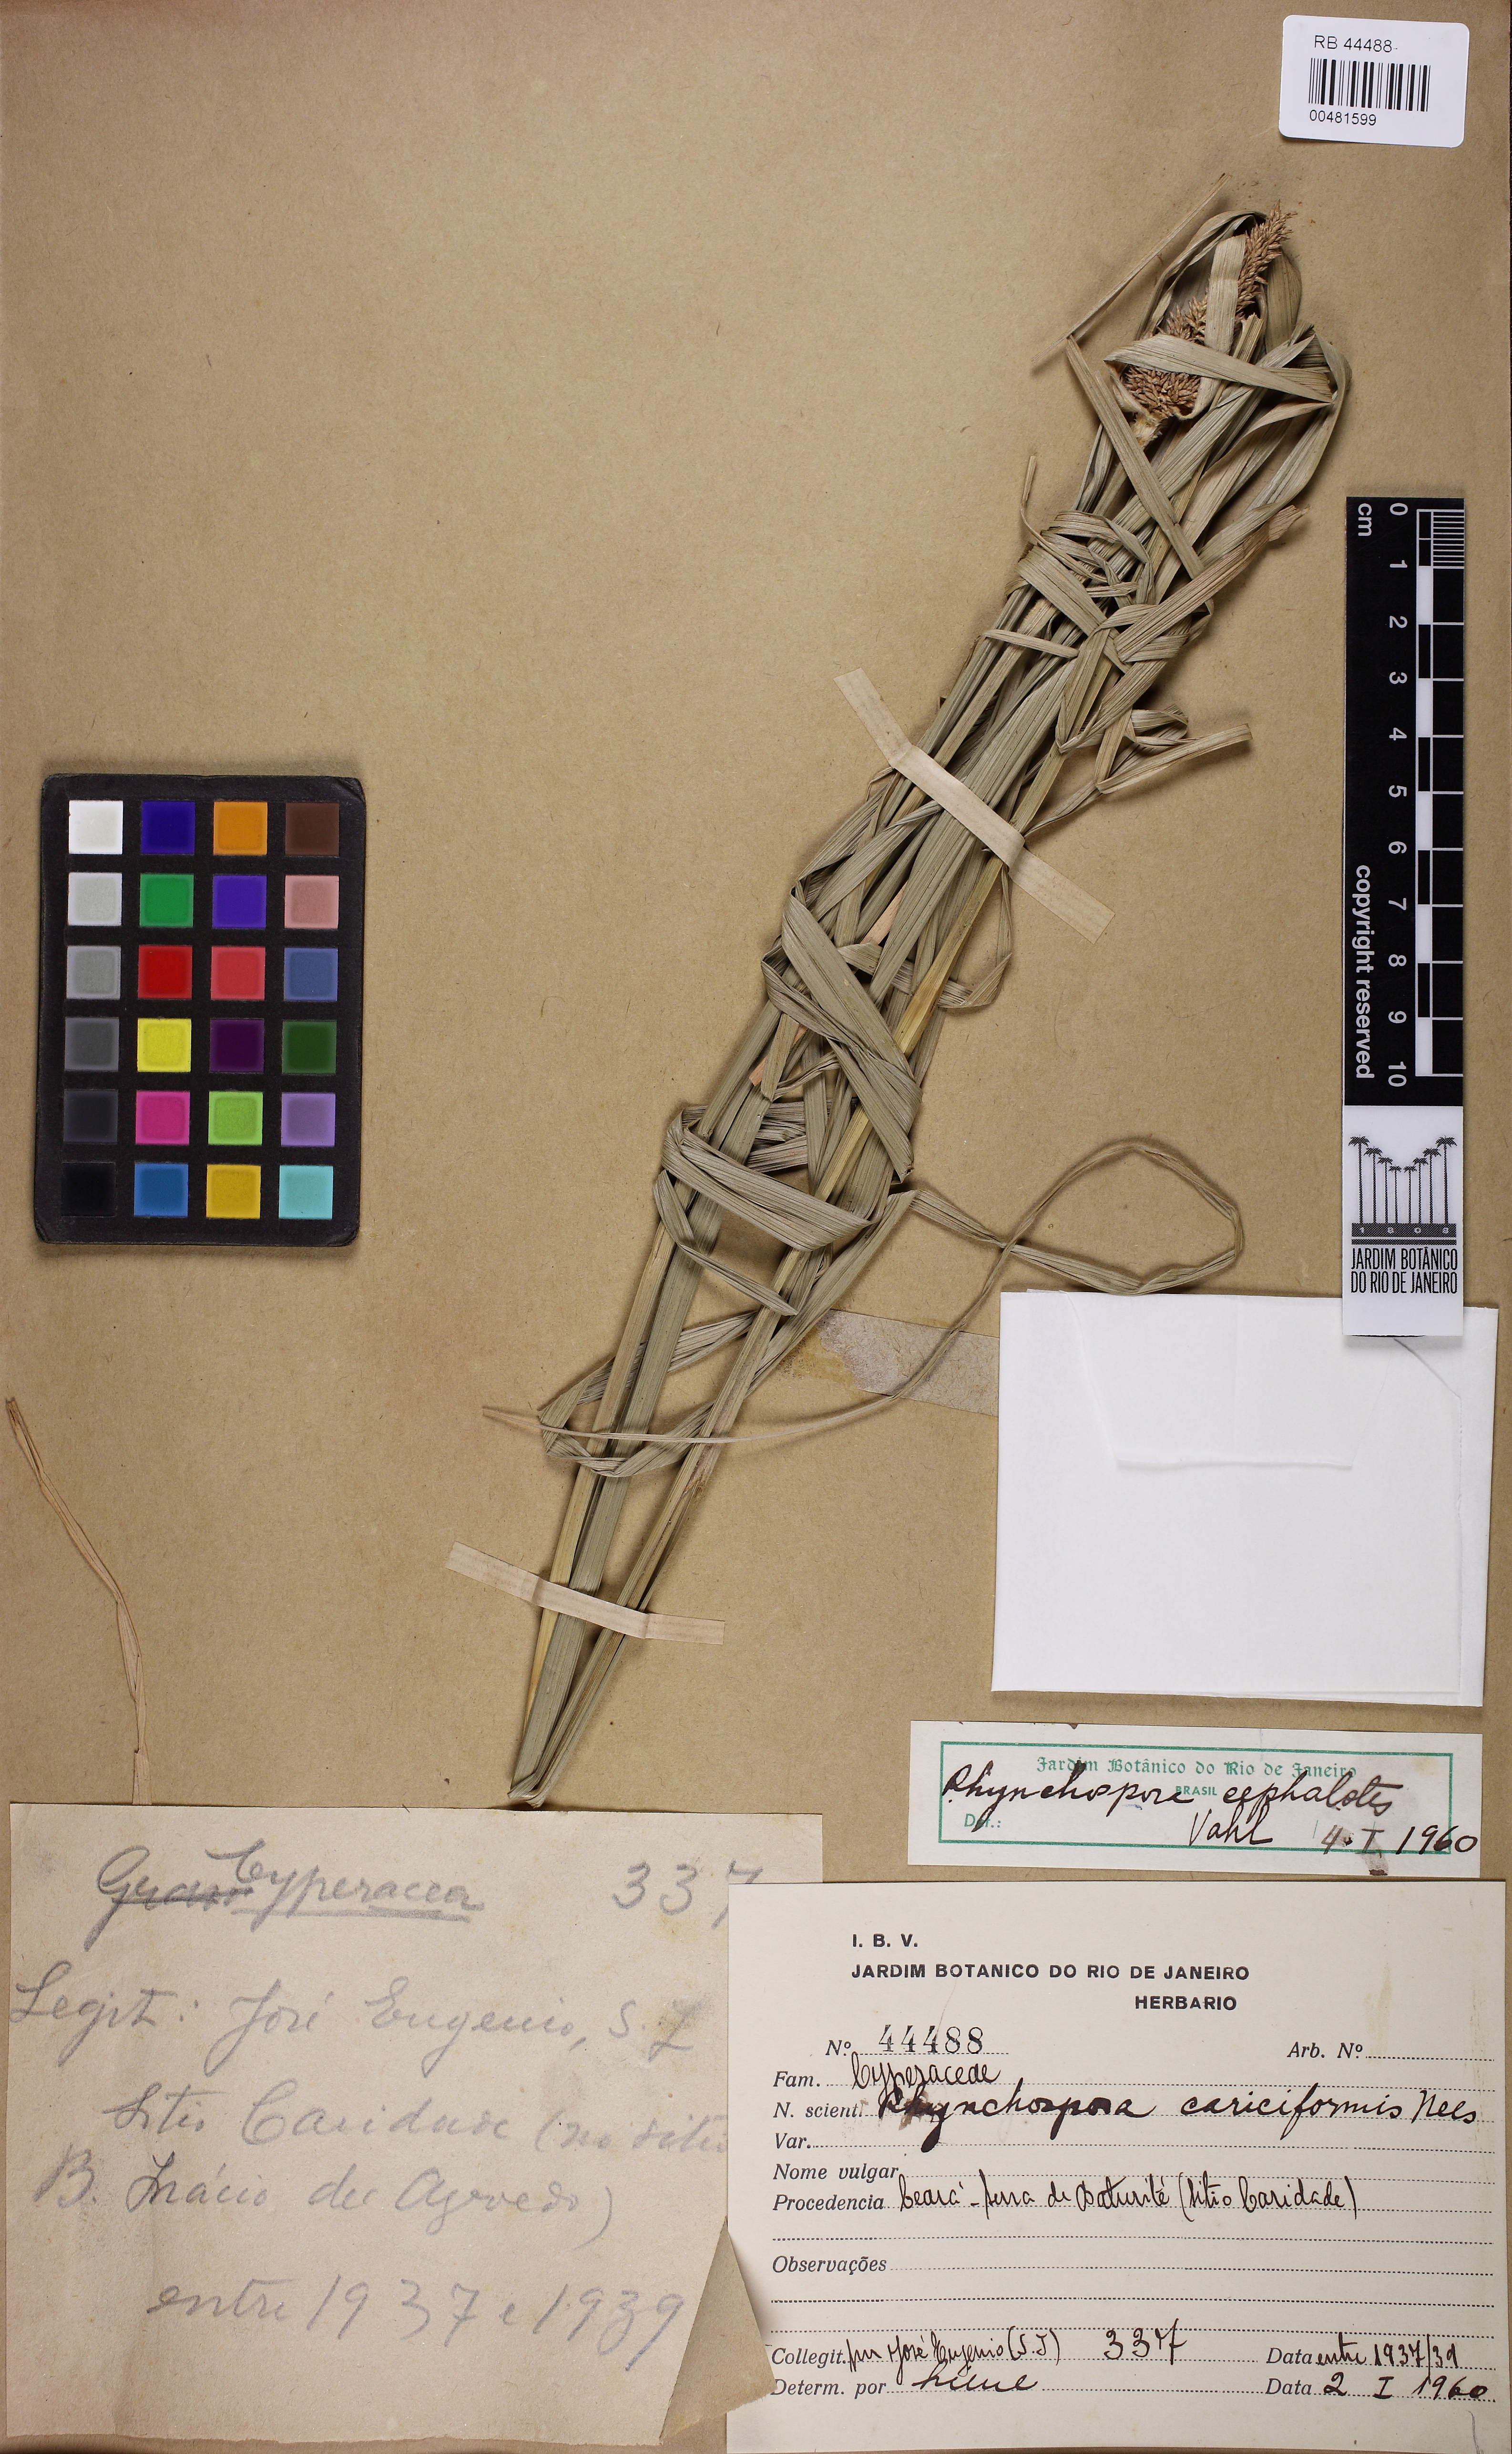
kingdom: Plantae
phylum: Tracheophyta
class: Liliopsida
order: Poales
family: Cyperaceae
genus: Rhynchospora
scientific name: Rhynchospora cephalotes
